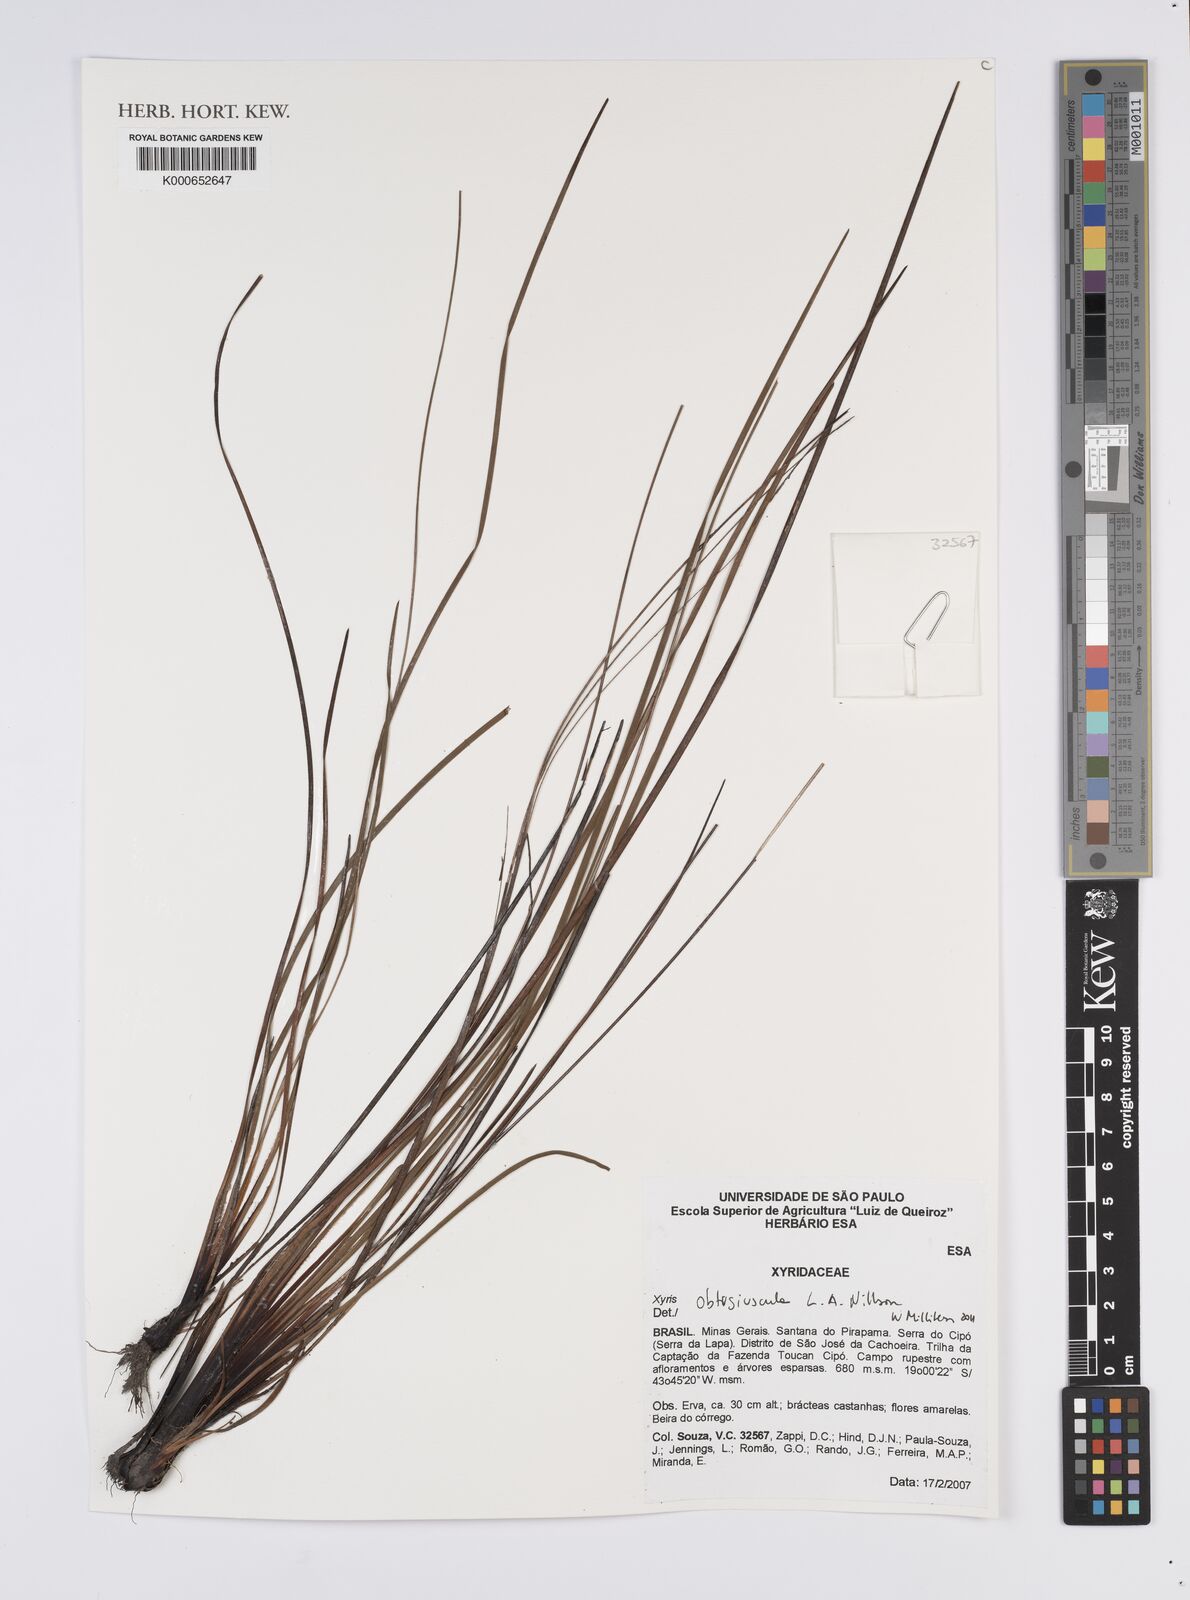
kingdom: Plantae
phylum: Tracheophyta
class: Liliopsida
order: Poales
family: Xyridaceae
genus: Xyris
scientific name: Xyris obtusiuscula
